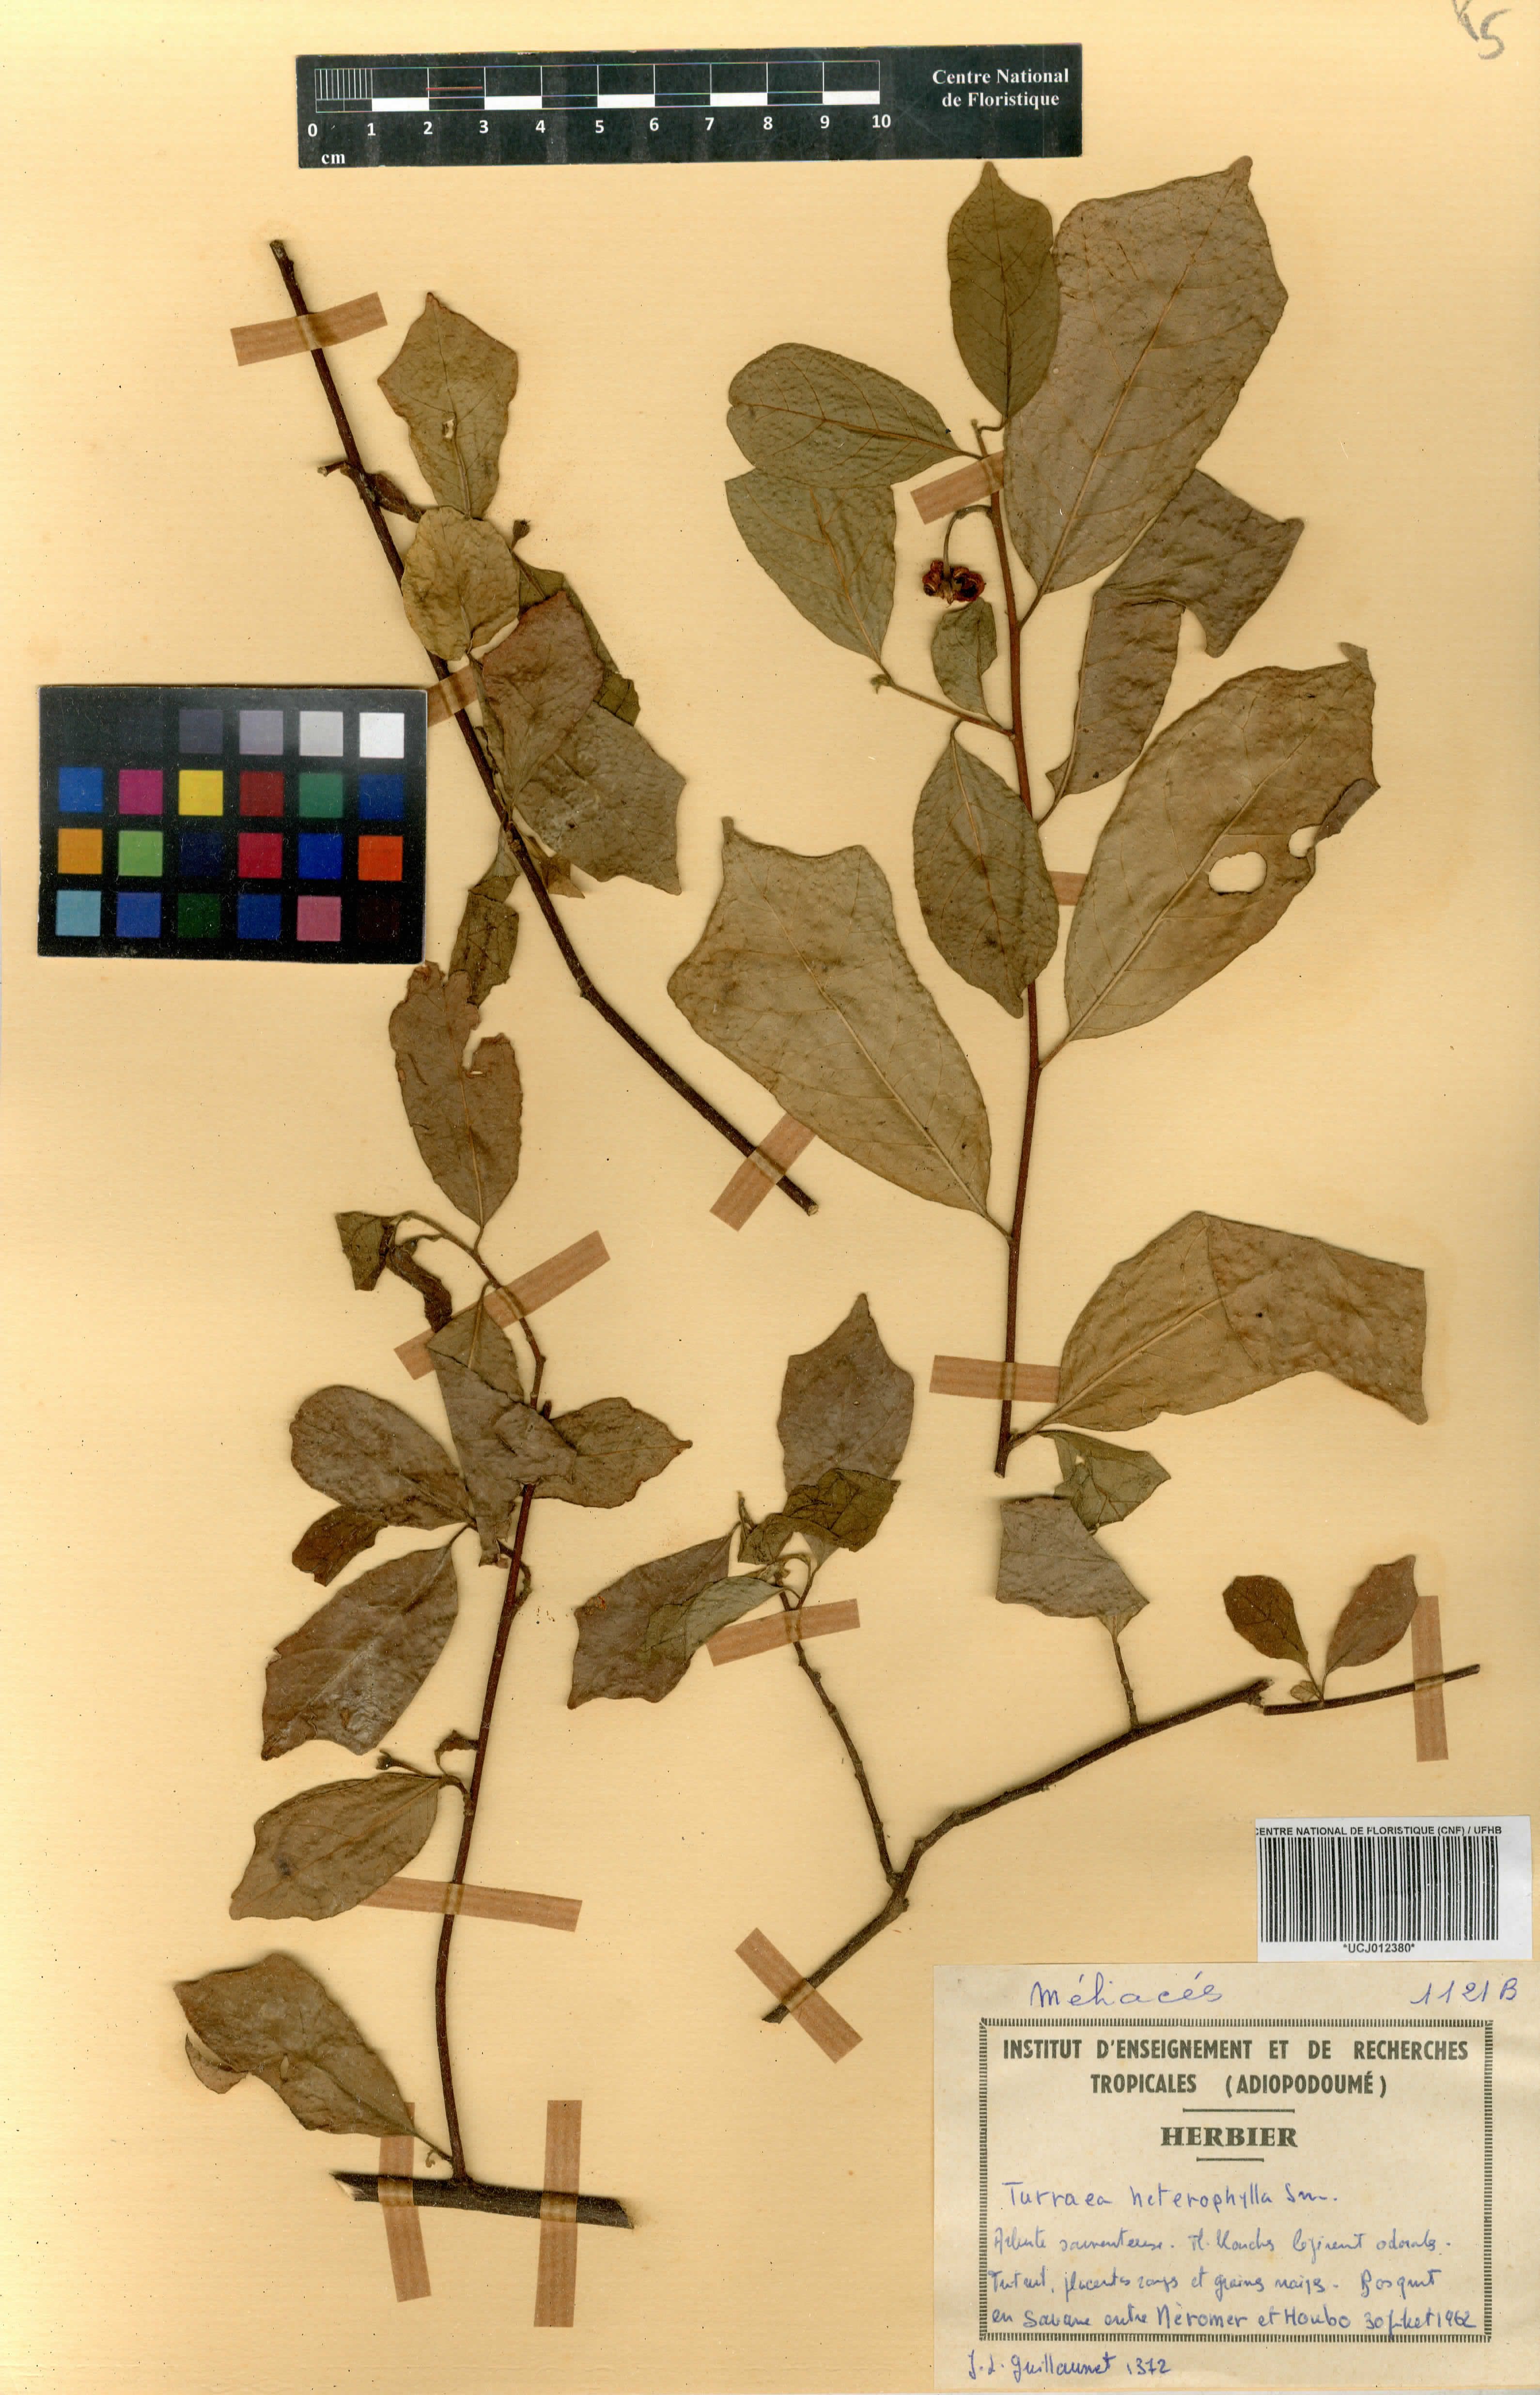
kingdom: Plantae
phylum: Tracheophyta
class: Magnoliopsida
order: Sapindales
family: Meliaceae
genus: Turraea
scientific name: Turraea heterophylla
